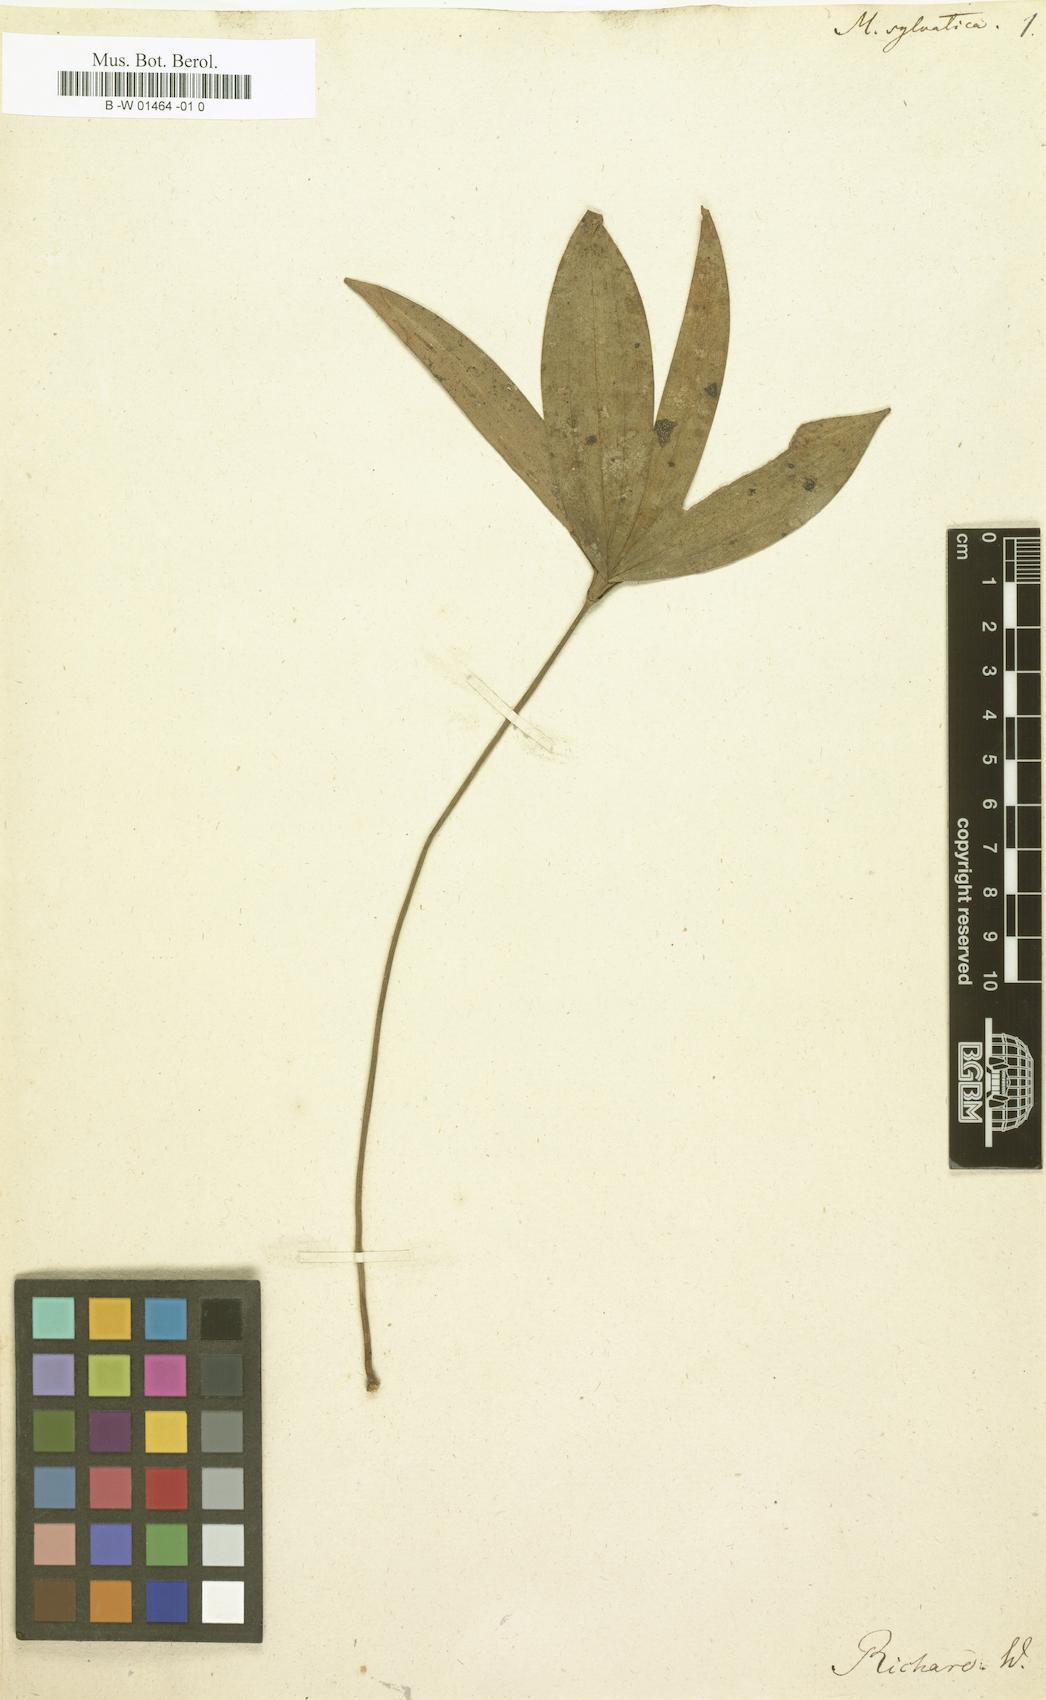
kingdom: Plantae
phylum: Tracheophyta
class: Liliopsida
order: Poales
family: Cyperaceae
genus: Mapania
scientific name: Mapania sylvatica
